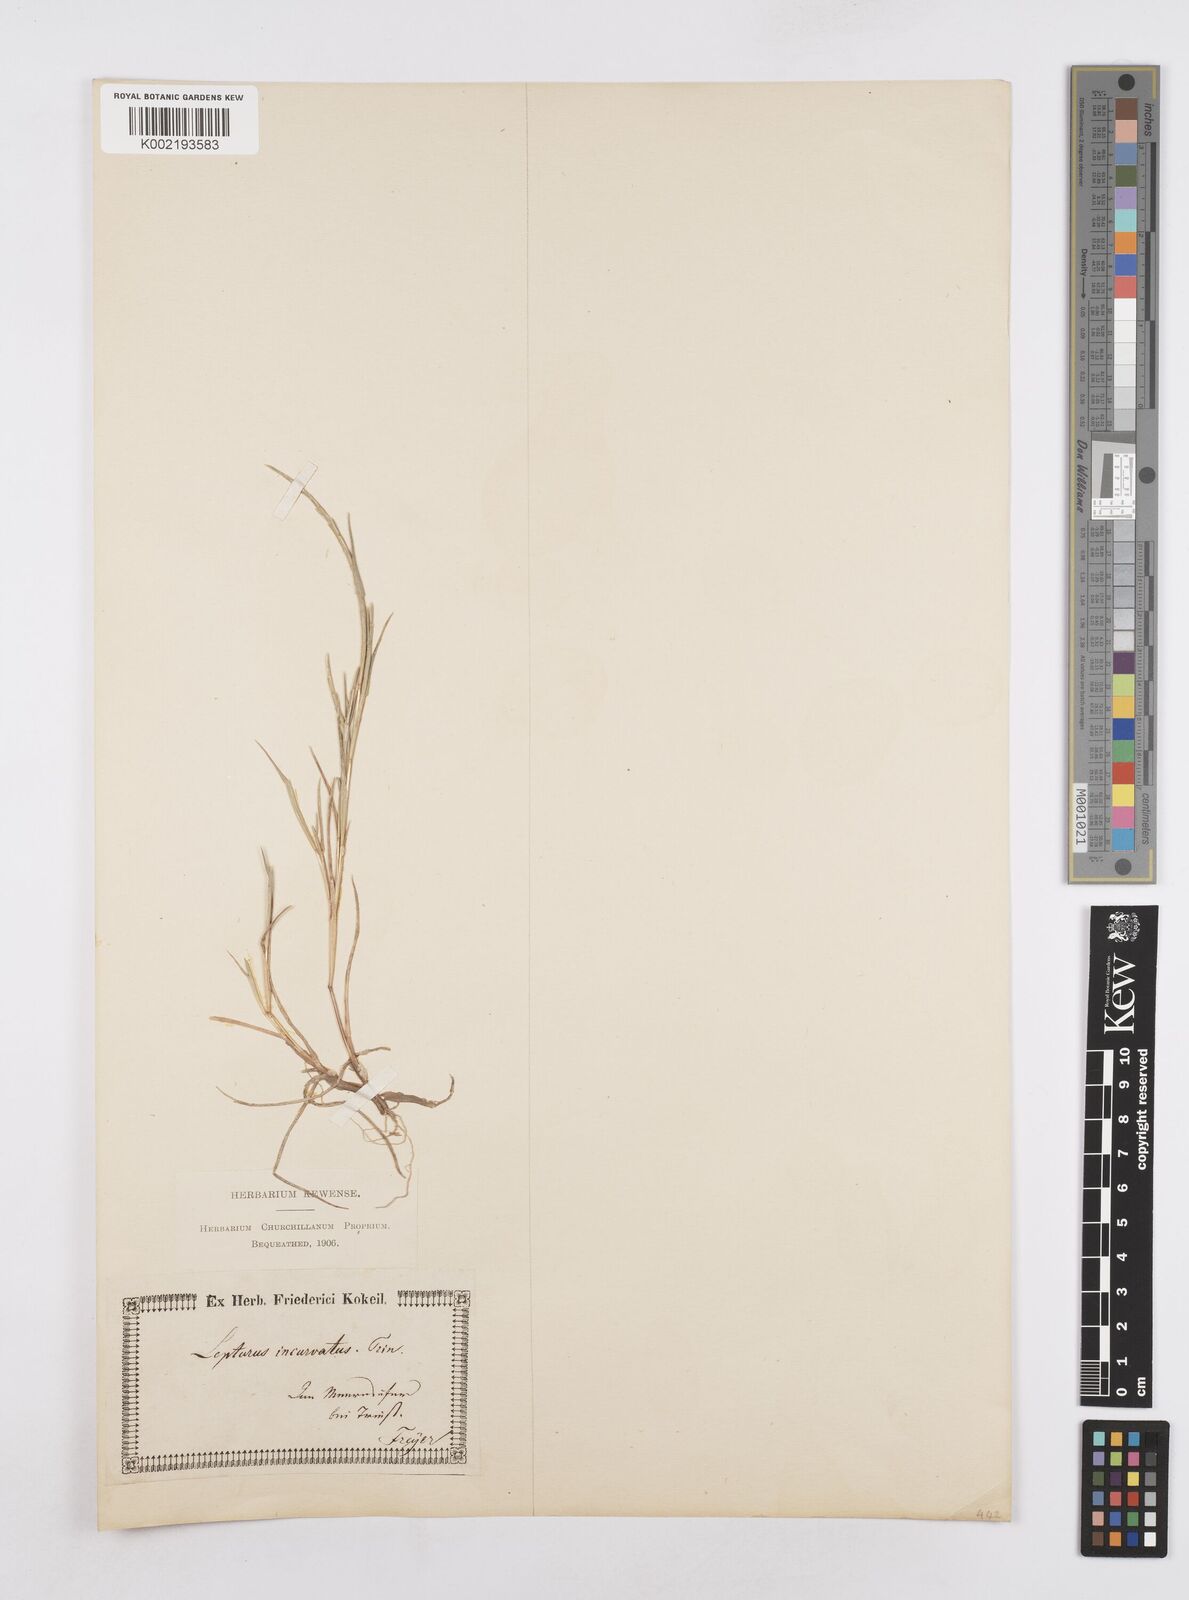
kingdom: Plantae
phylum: Tracheophyta
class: Liliopsida
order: Poales
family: Poaceae
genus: Parapholis
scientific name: Parapholis incurva
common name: Curved sicklegrass
